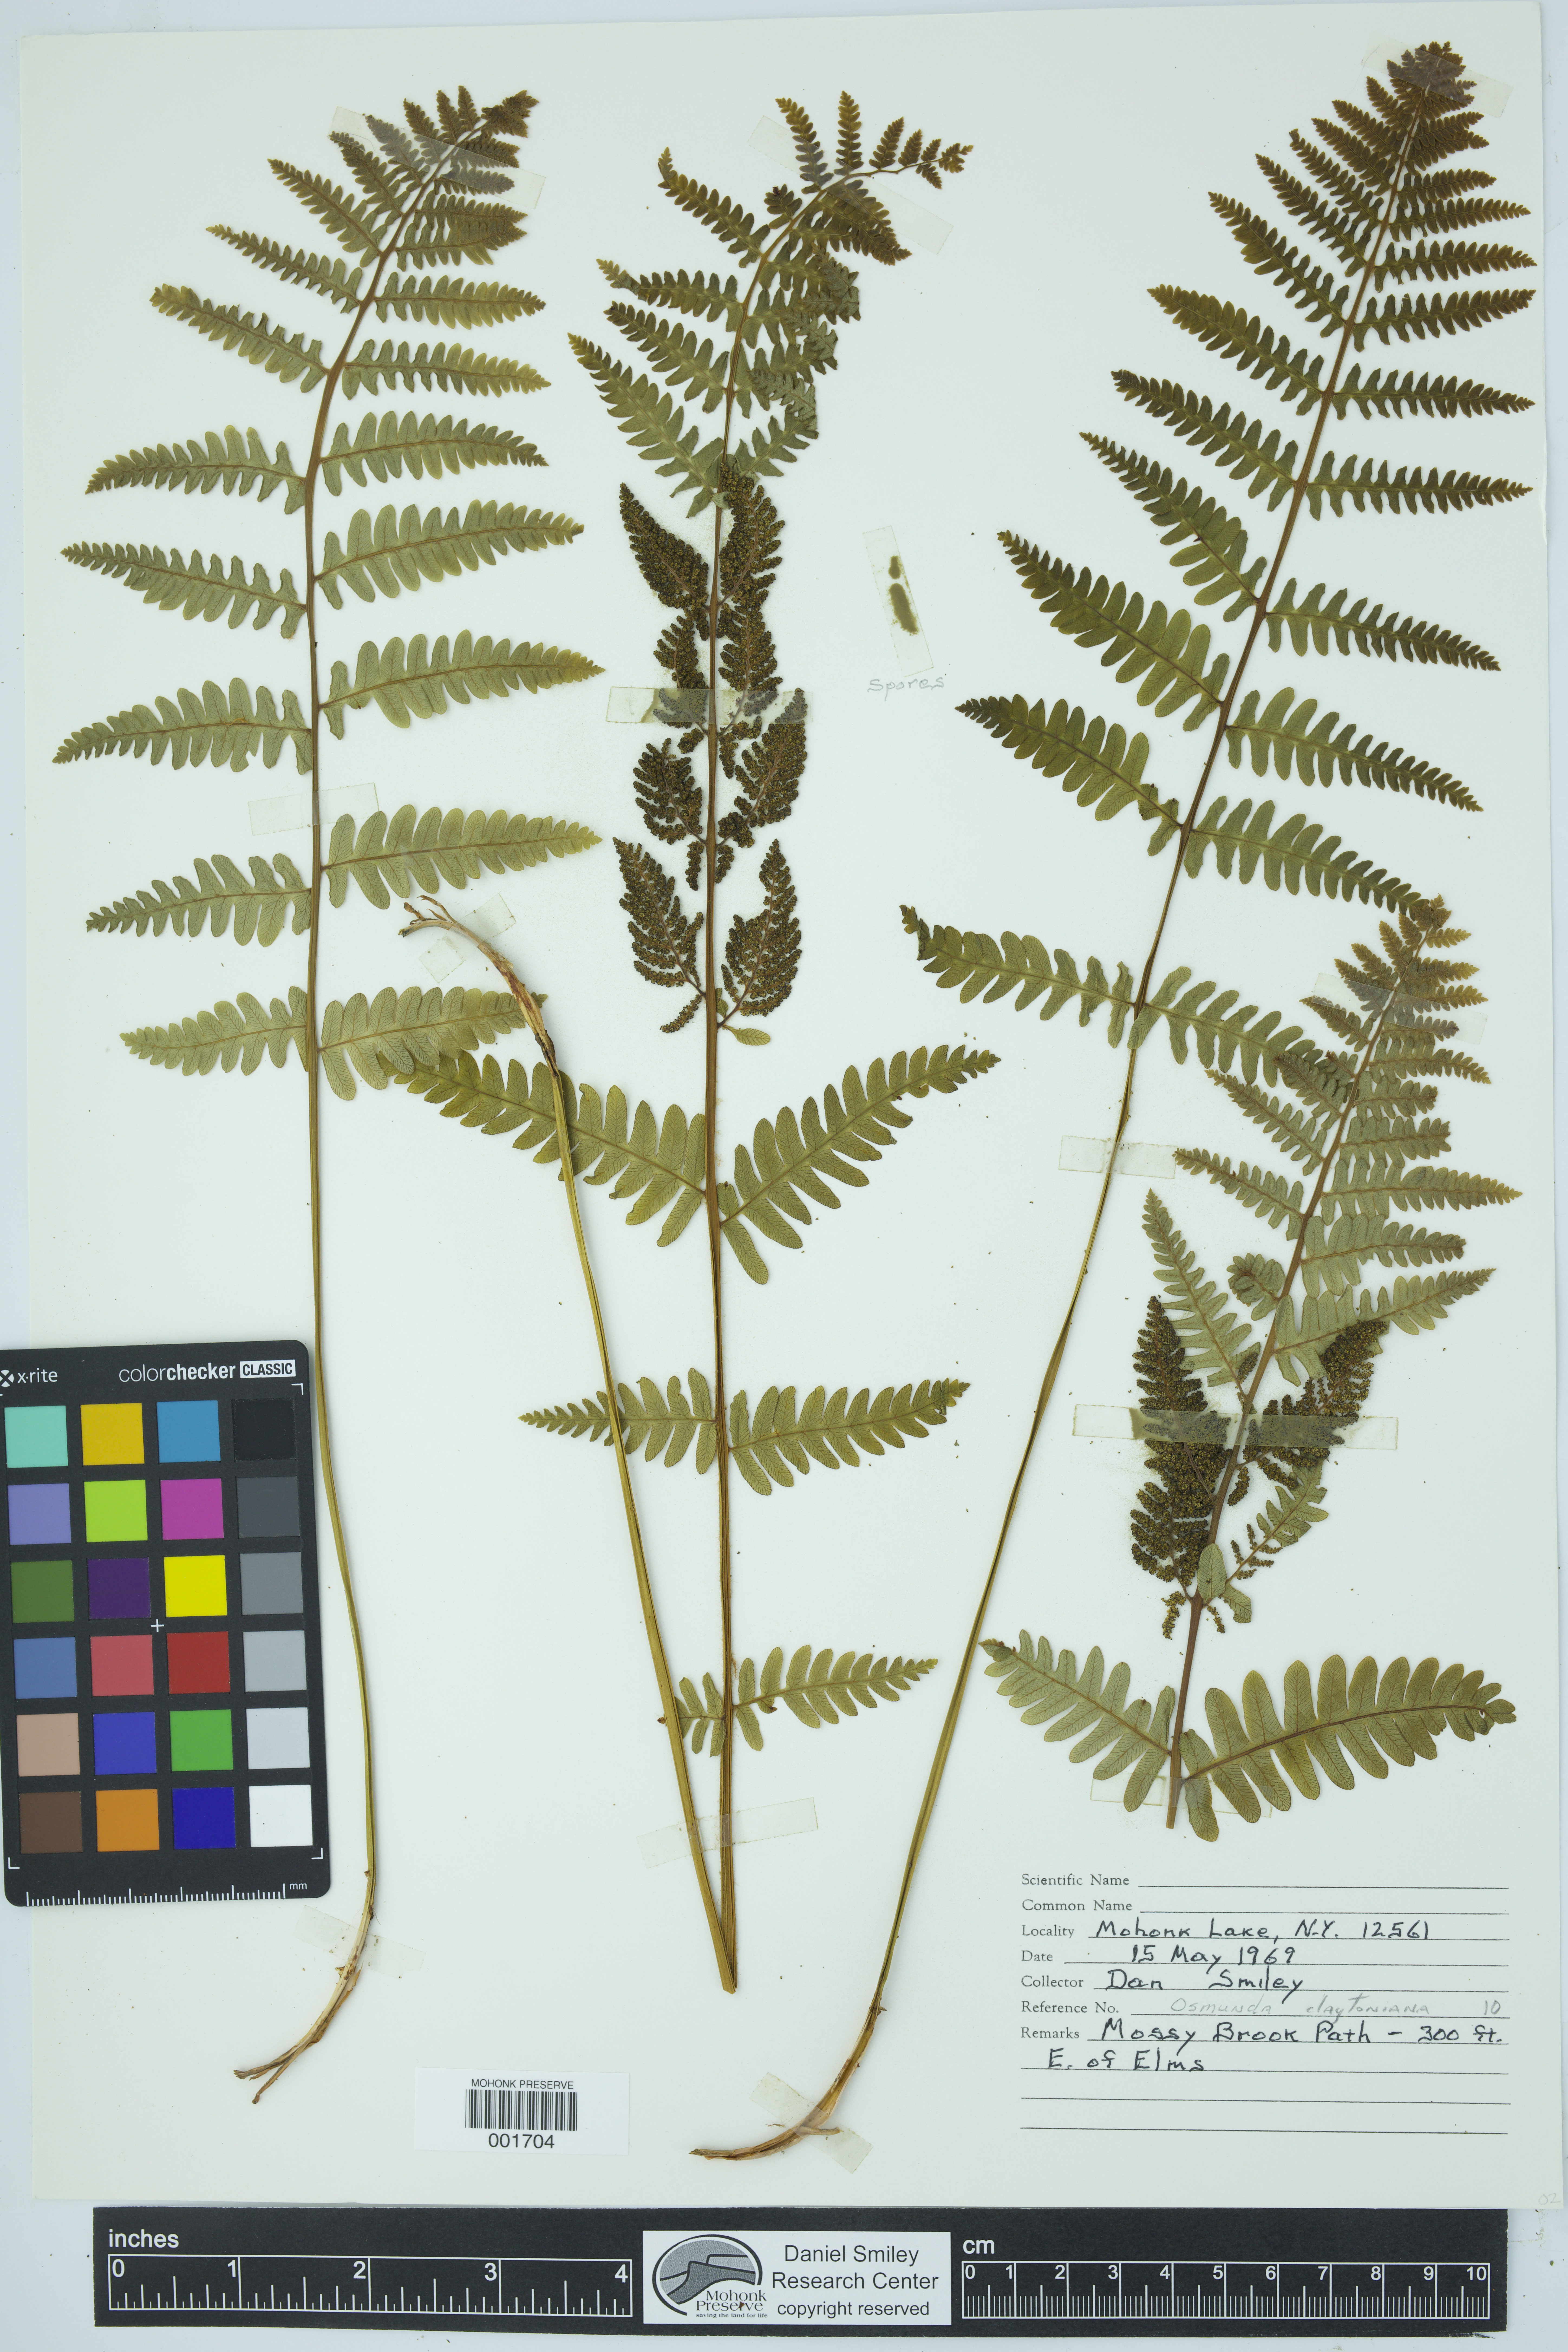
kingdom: Plantae
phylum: Tracheophyta
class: Polypodiopsida
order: Osmundales
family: Osmundaceae
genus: Claytosmunda
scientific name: Claytosmunda claytoniana
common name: Clayton's fern
